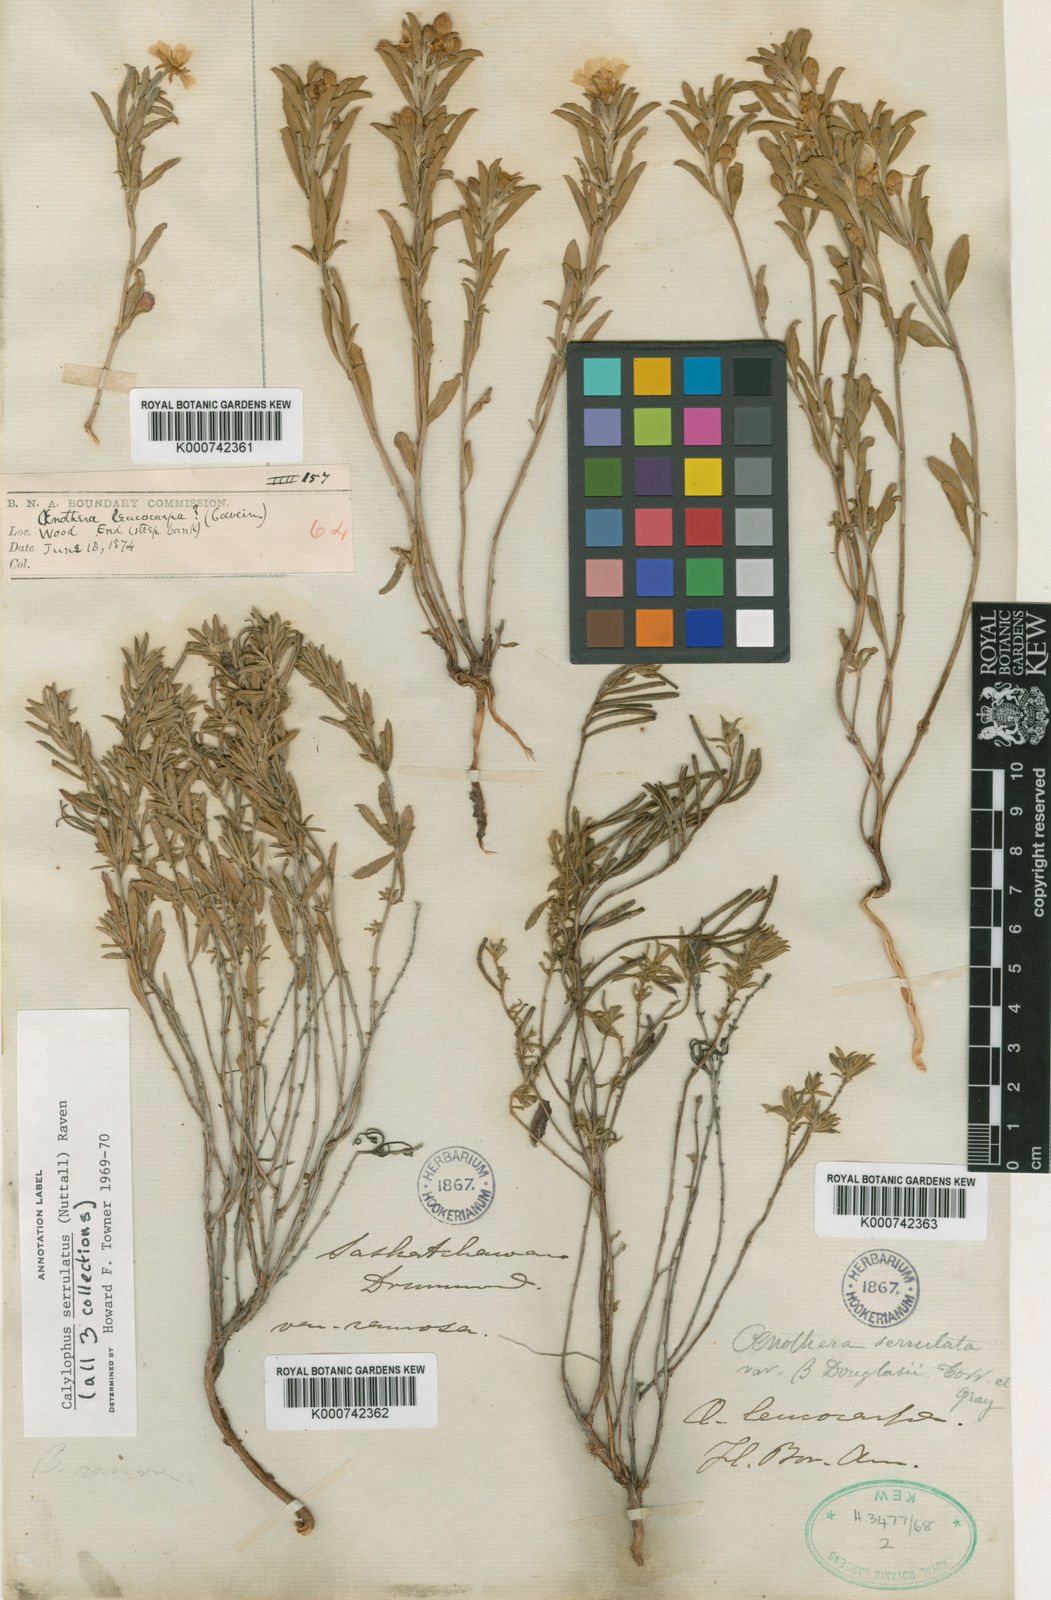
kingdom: Plantae
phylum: Tracheophyta
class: Magnoliopsida
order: Myrtales
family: Onagraceae
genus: Oenothera
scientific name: Oenothera serrulata
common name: Half-shrub calylophus
